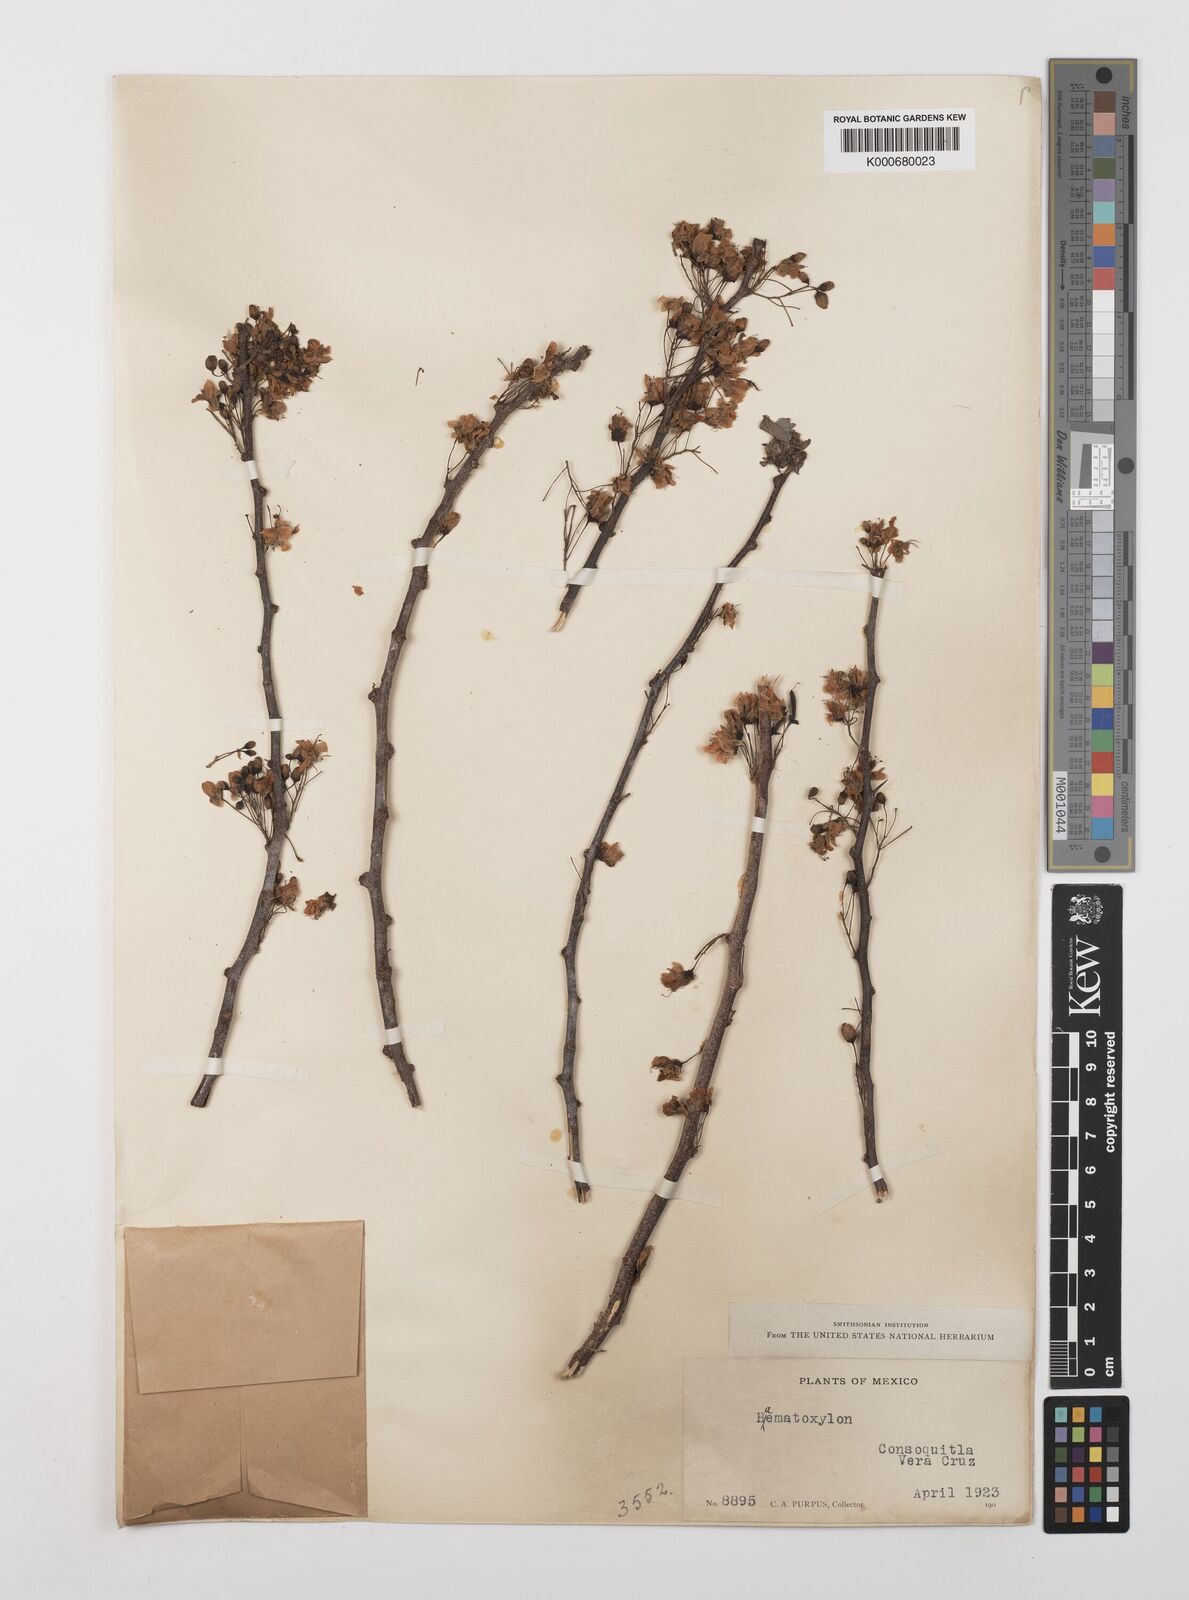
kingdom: Plantae
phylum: Tracheophyta
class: Magnoliopsida
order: Fabales
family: Fabaceae
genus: Haematoxylum
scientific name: Haematoxylum
